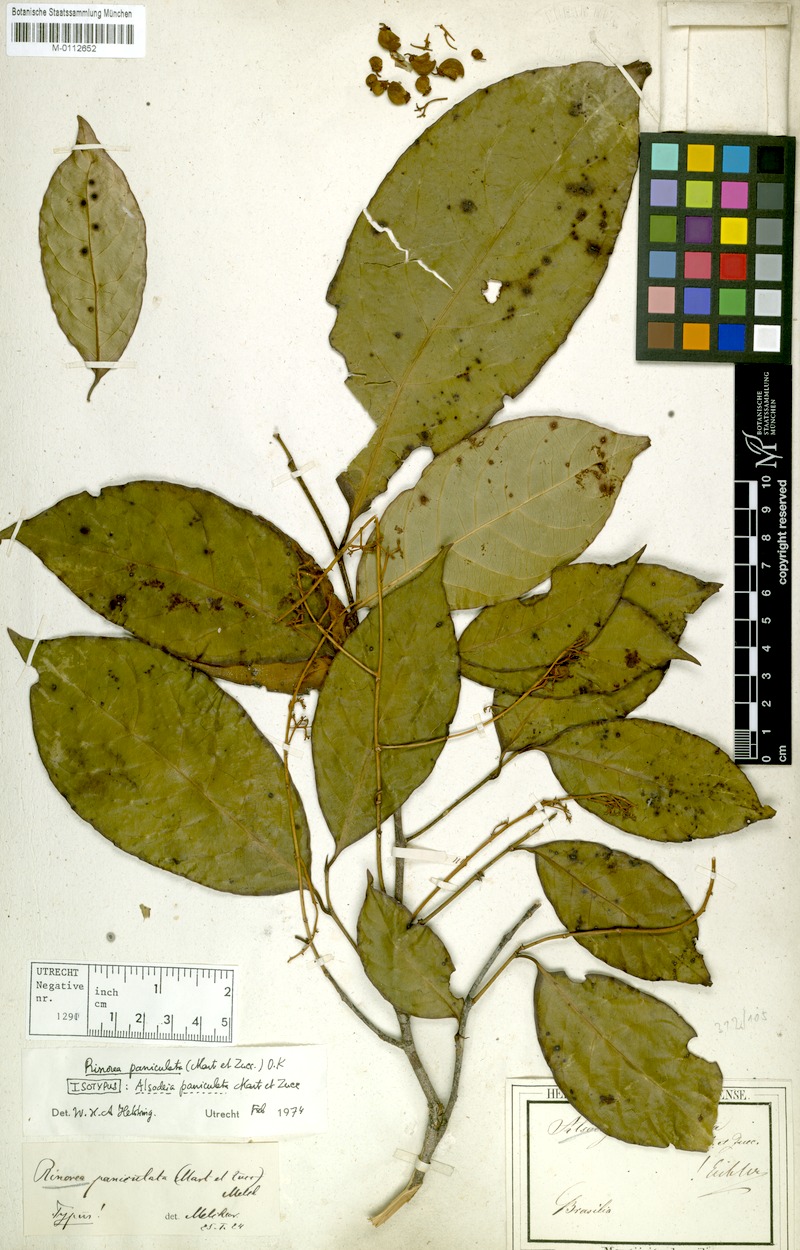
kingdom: Plantae
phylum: Tracheophyta
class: Magnoliopsida
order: Malpighiales
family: Violaceae
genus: Rinorea
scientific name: Rinorea paniculata
